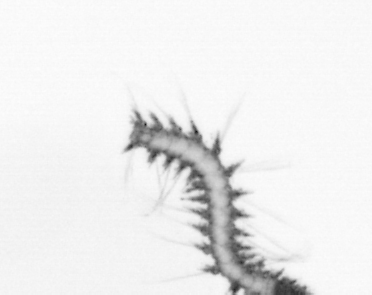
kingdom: Animalia
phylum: Annelida
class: Polychaeta
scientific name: Polychaeta
